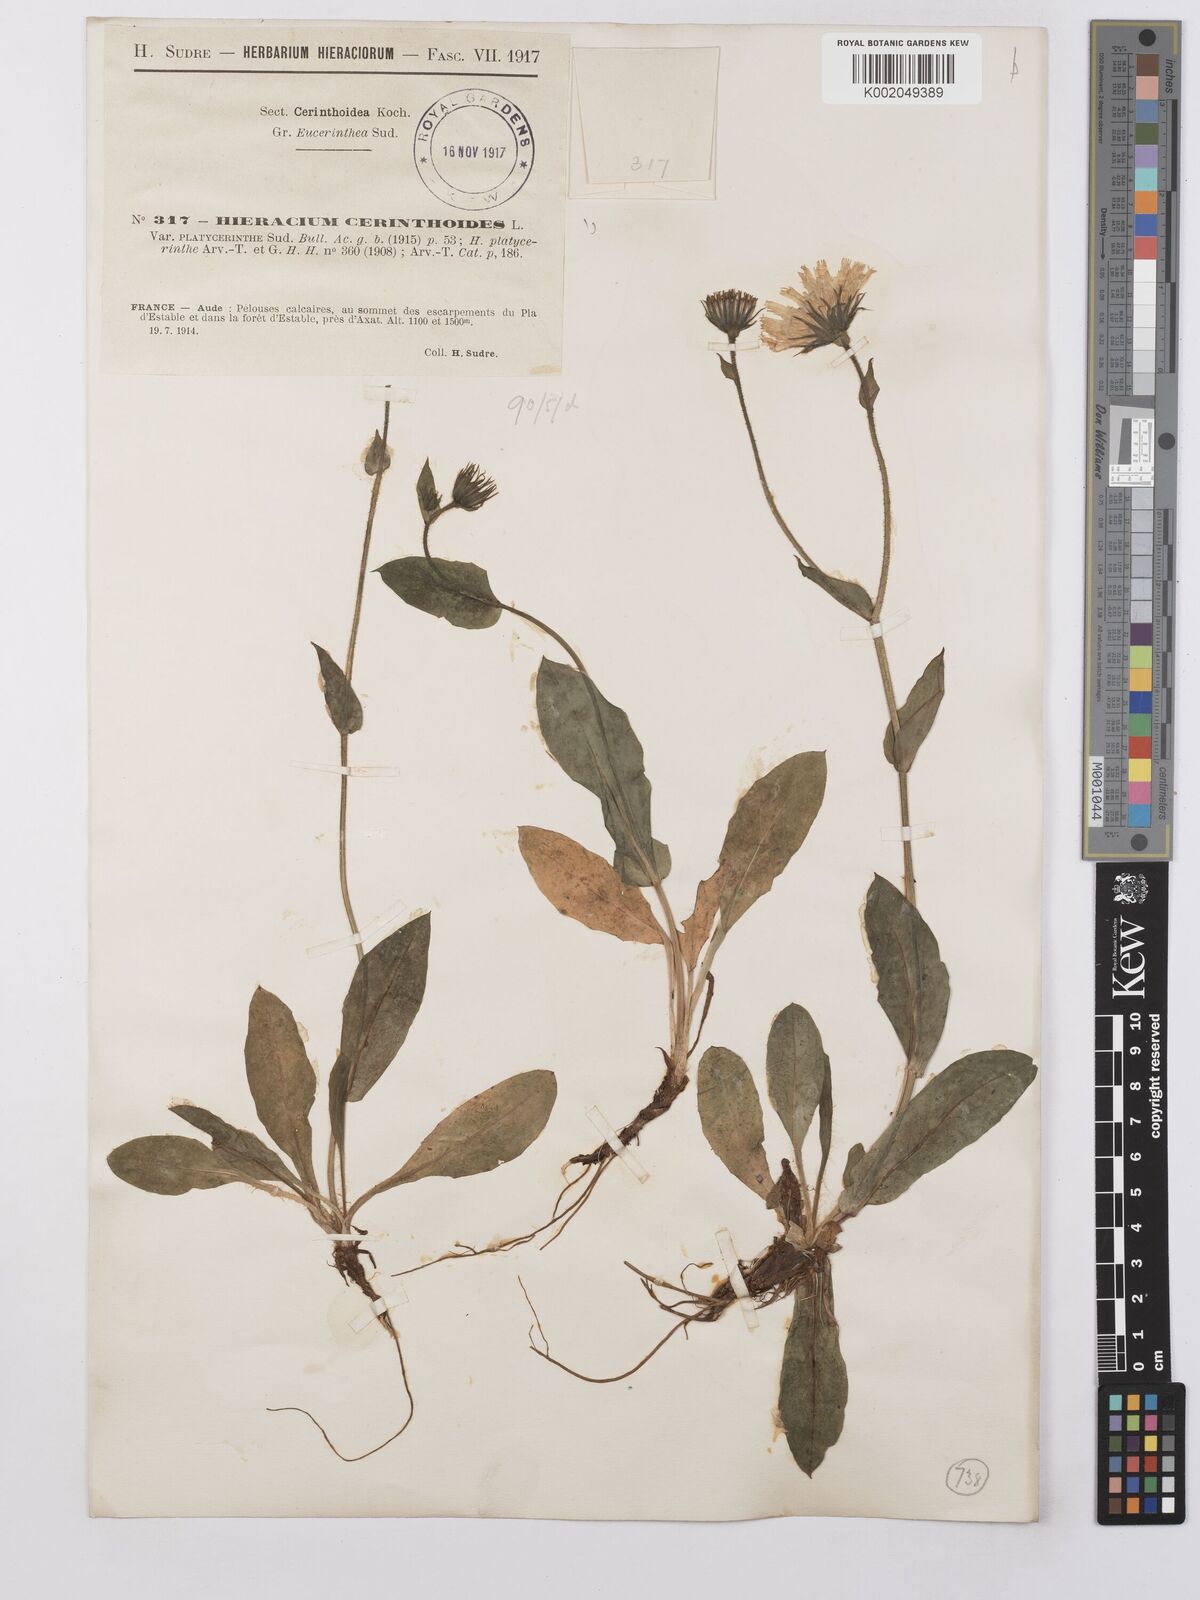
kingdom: Plantae
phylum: Tracheophyta
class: Magnoliopsida
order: Asterales
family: Asteraceae
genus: Hieracium
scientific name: Hieracium cerinthoides
